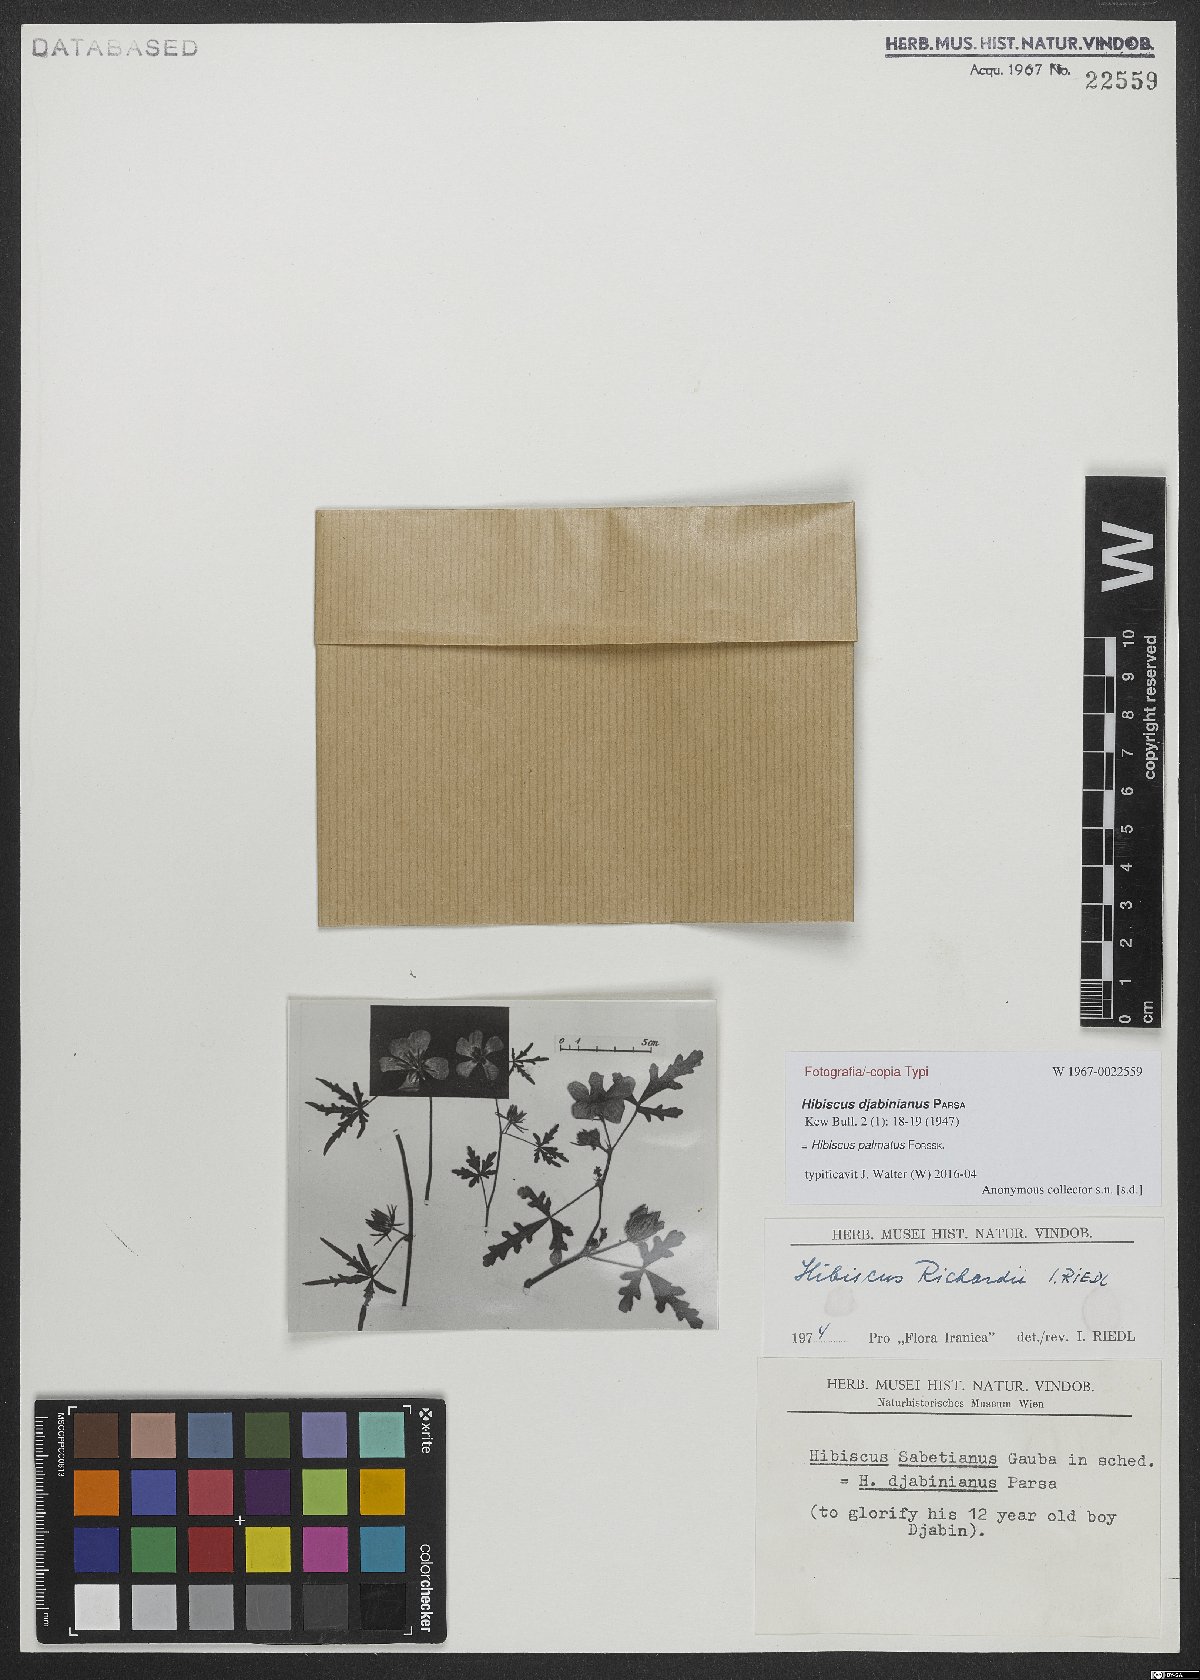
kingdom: Plantae
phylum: Tracheophyta
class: Magnoliopsida
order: Malvales
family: Malvaceae
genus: Hibiscus
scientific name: Hibiscus palmatus
